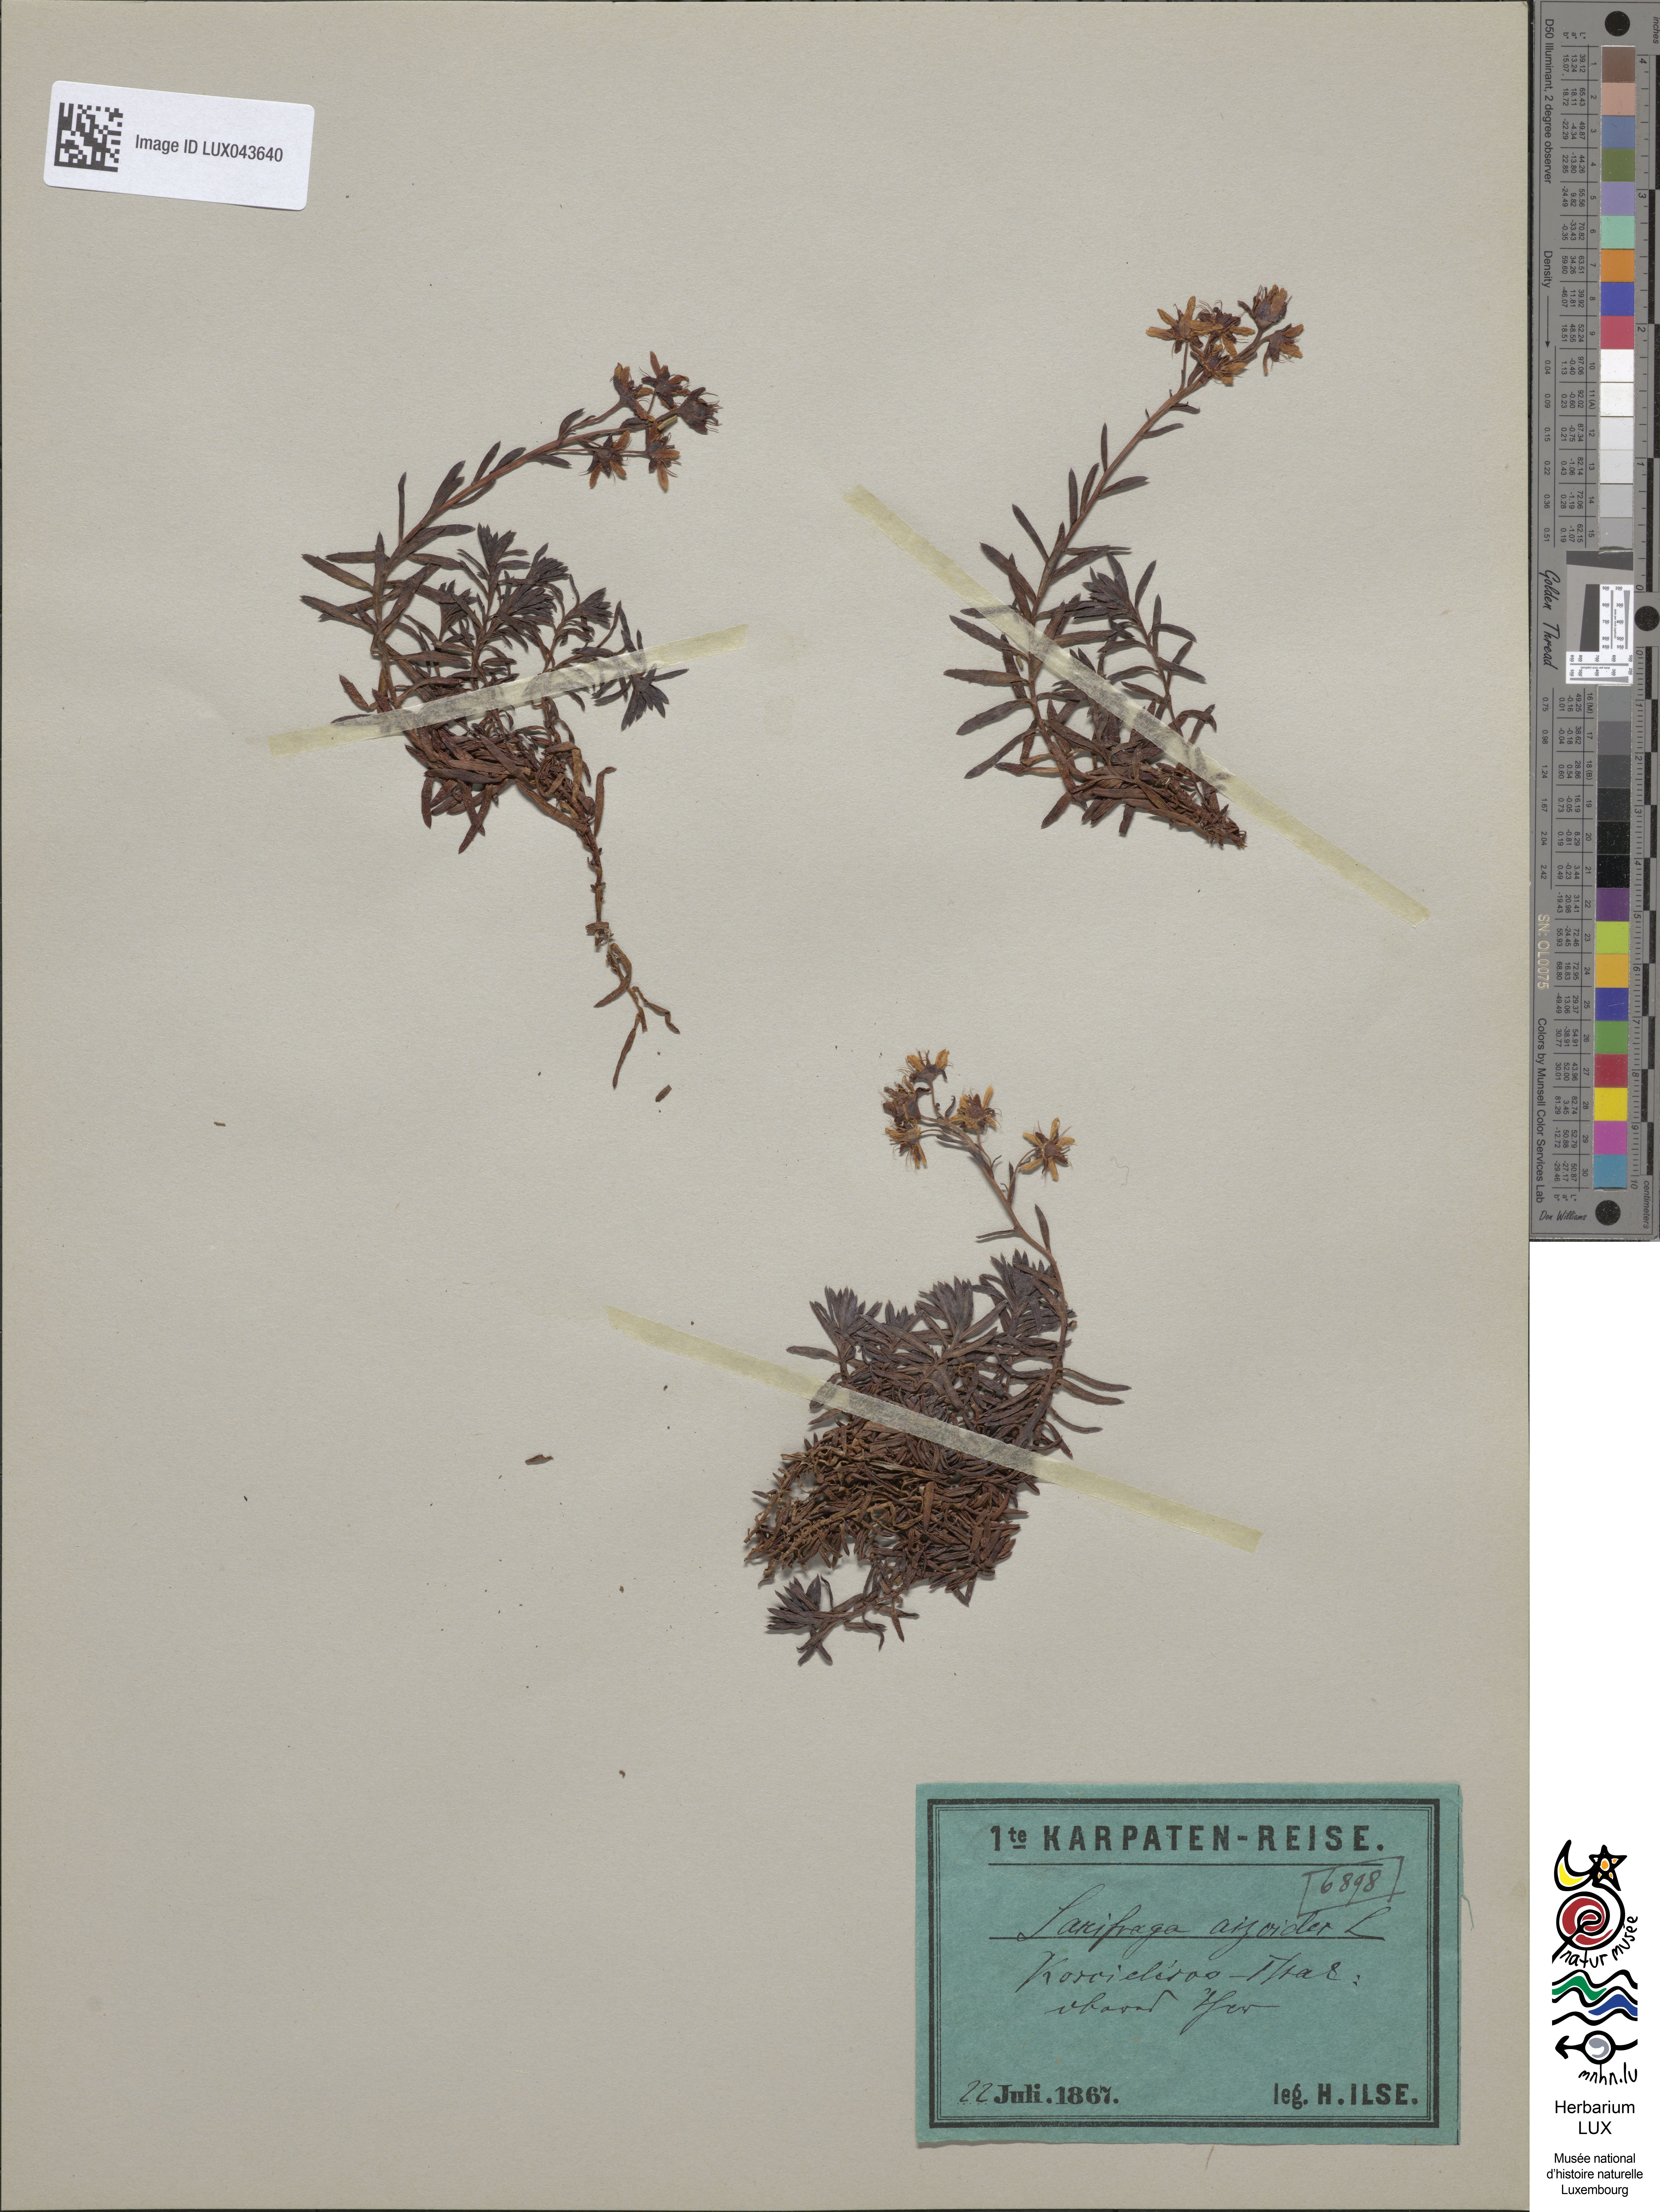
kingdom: Plantae
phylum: Tracheophyta
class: Magnoliopsida
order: Saxifragales
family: Saxifragaceae
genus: Saxifraga
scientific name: Saxifraga aizoides
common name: Yellow mountain saxifrage
